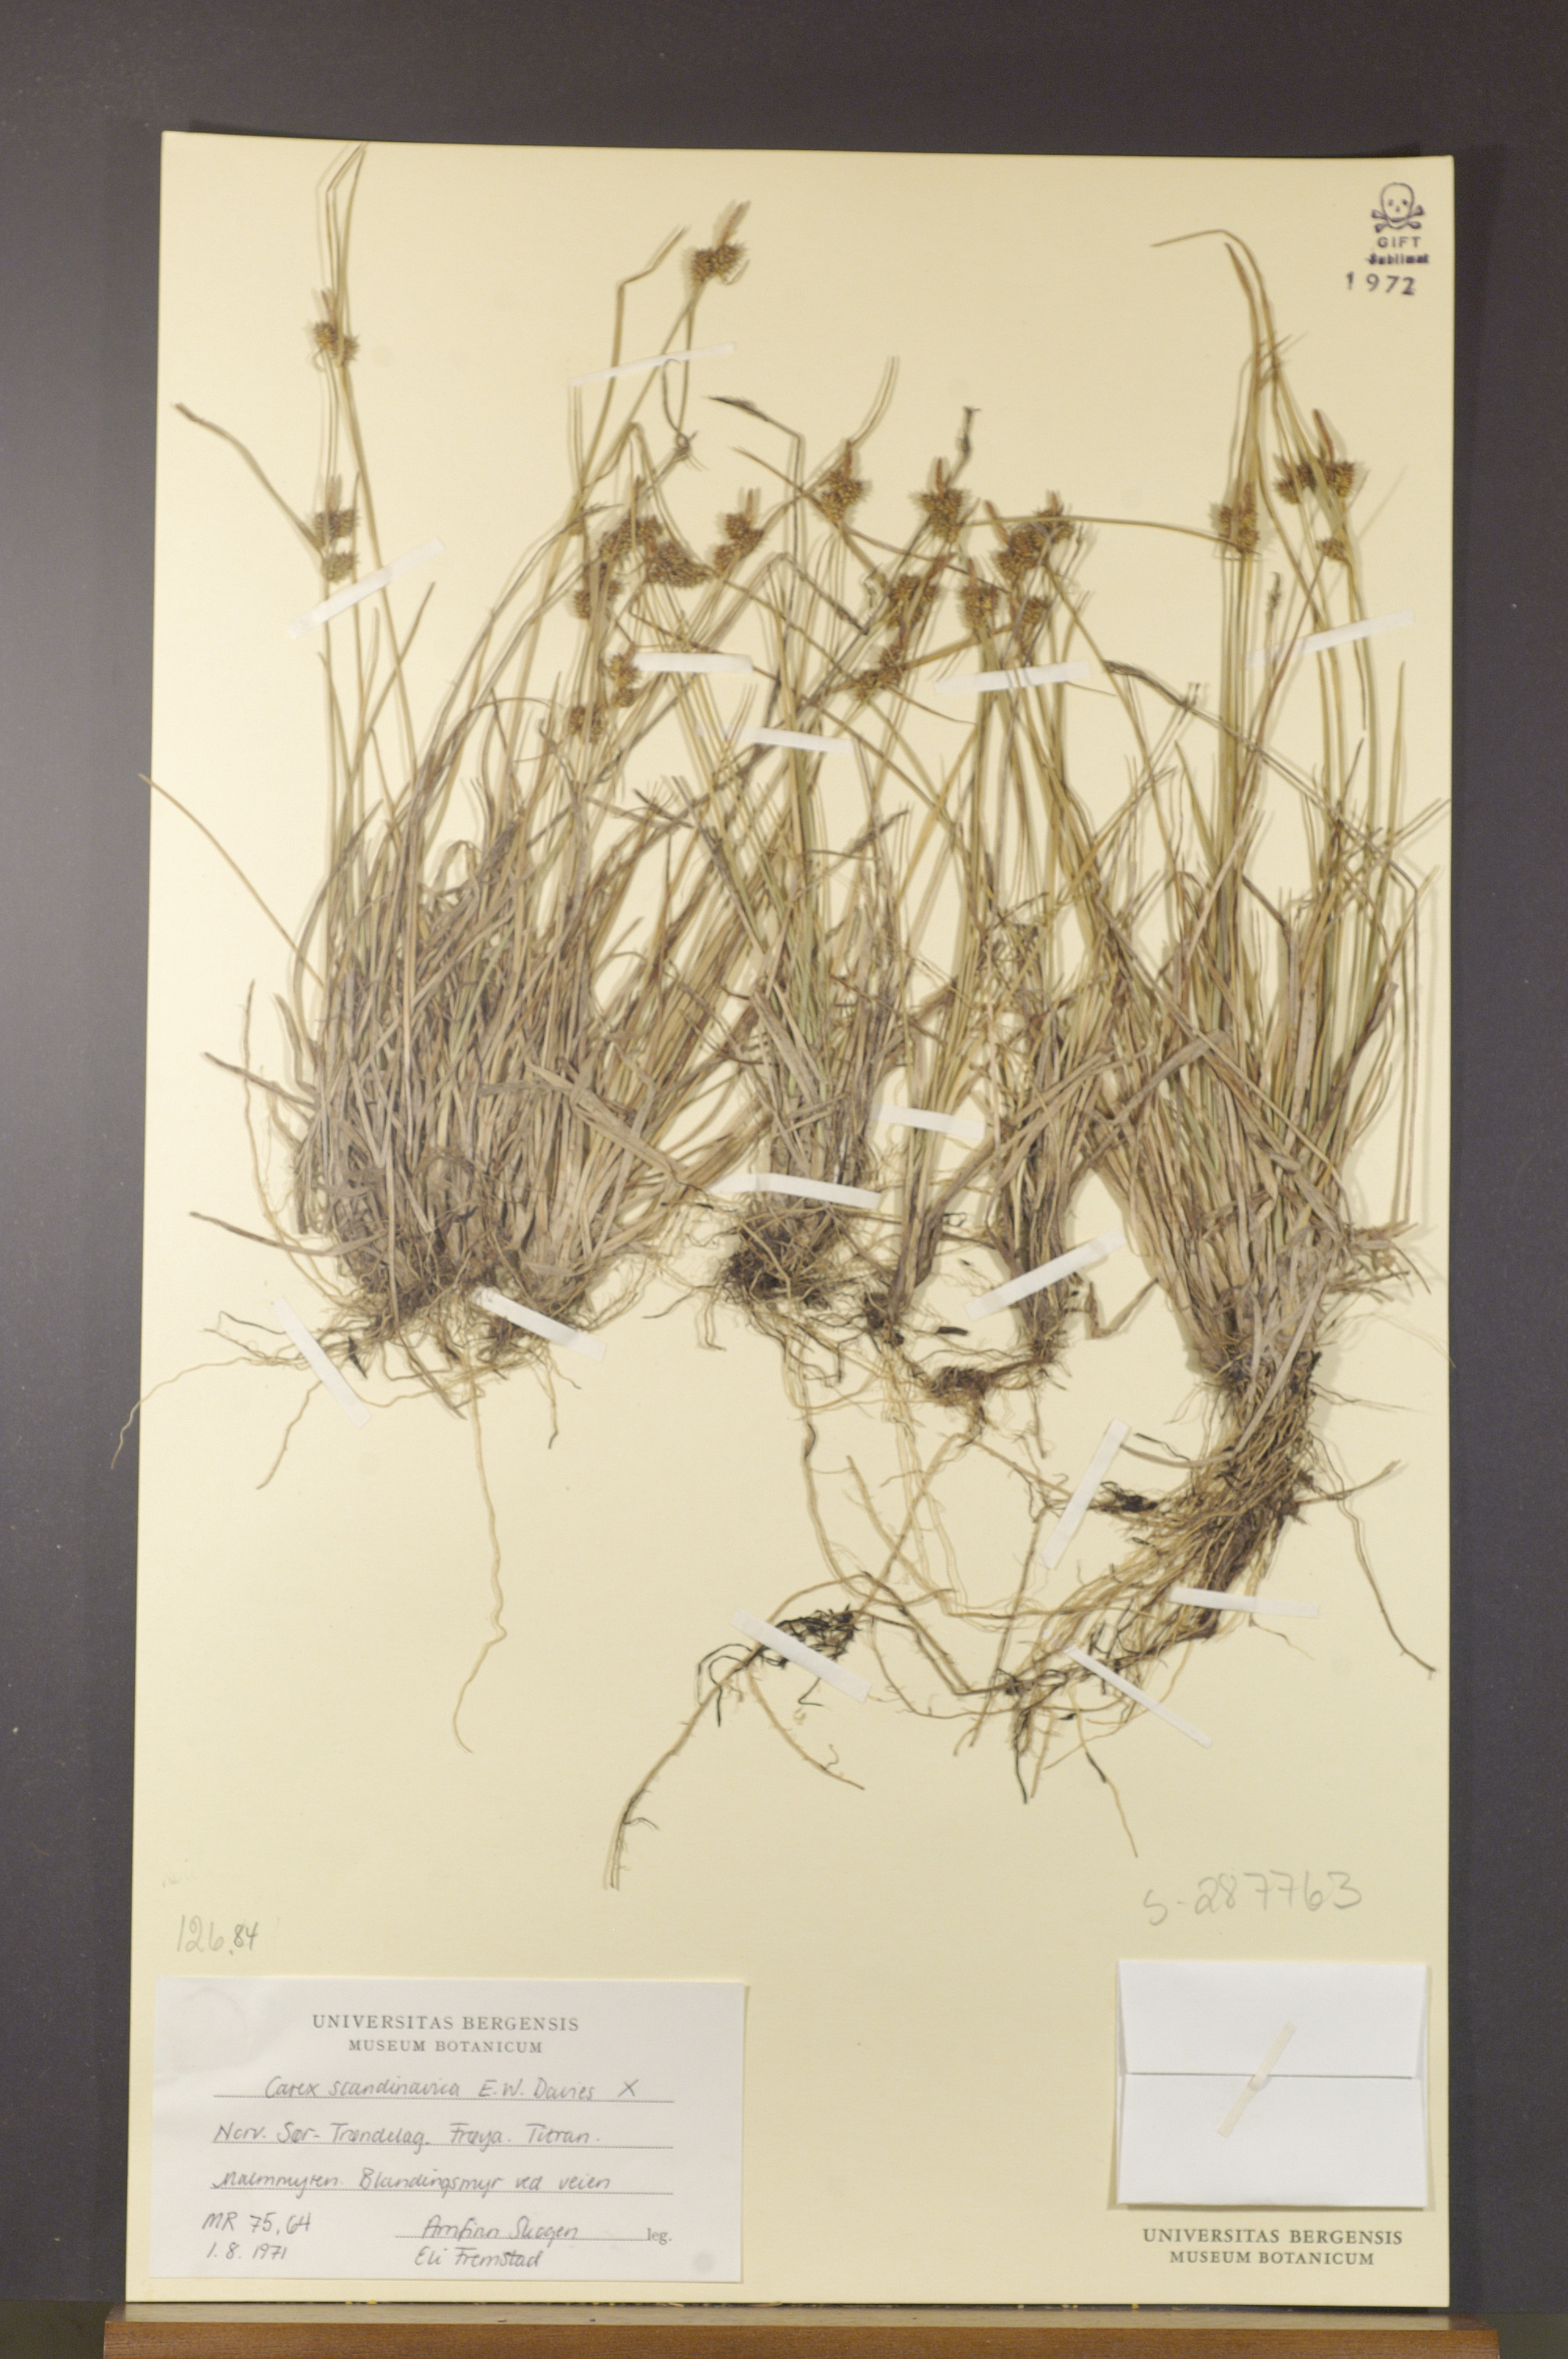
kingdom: Plantae
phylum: Tracheophyta
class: Liliopsida
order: Poales
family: Cyperaceae
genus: Carex
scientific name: Carex oederi
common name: Common & small-fruited yellow-sedge
